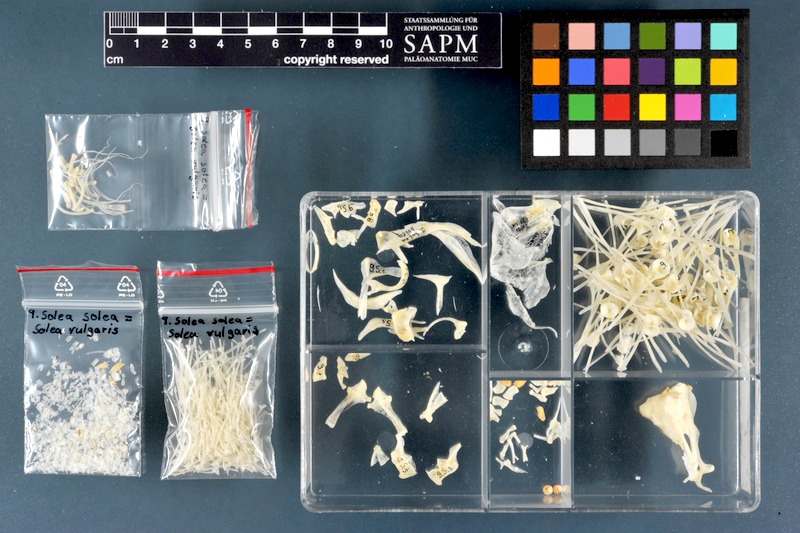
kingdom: Animalia
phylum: Chordata
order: Pleuronectiformes
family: Soleidae
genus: Solea
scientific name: Solea solea
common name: Sole
